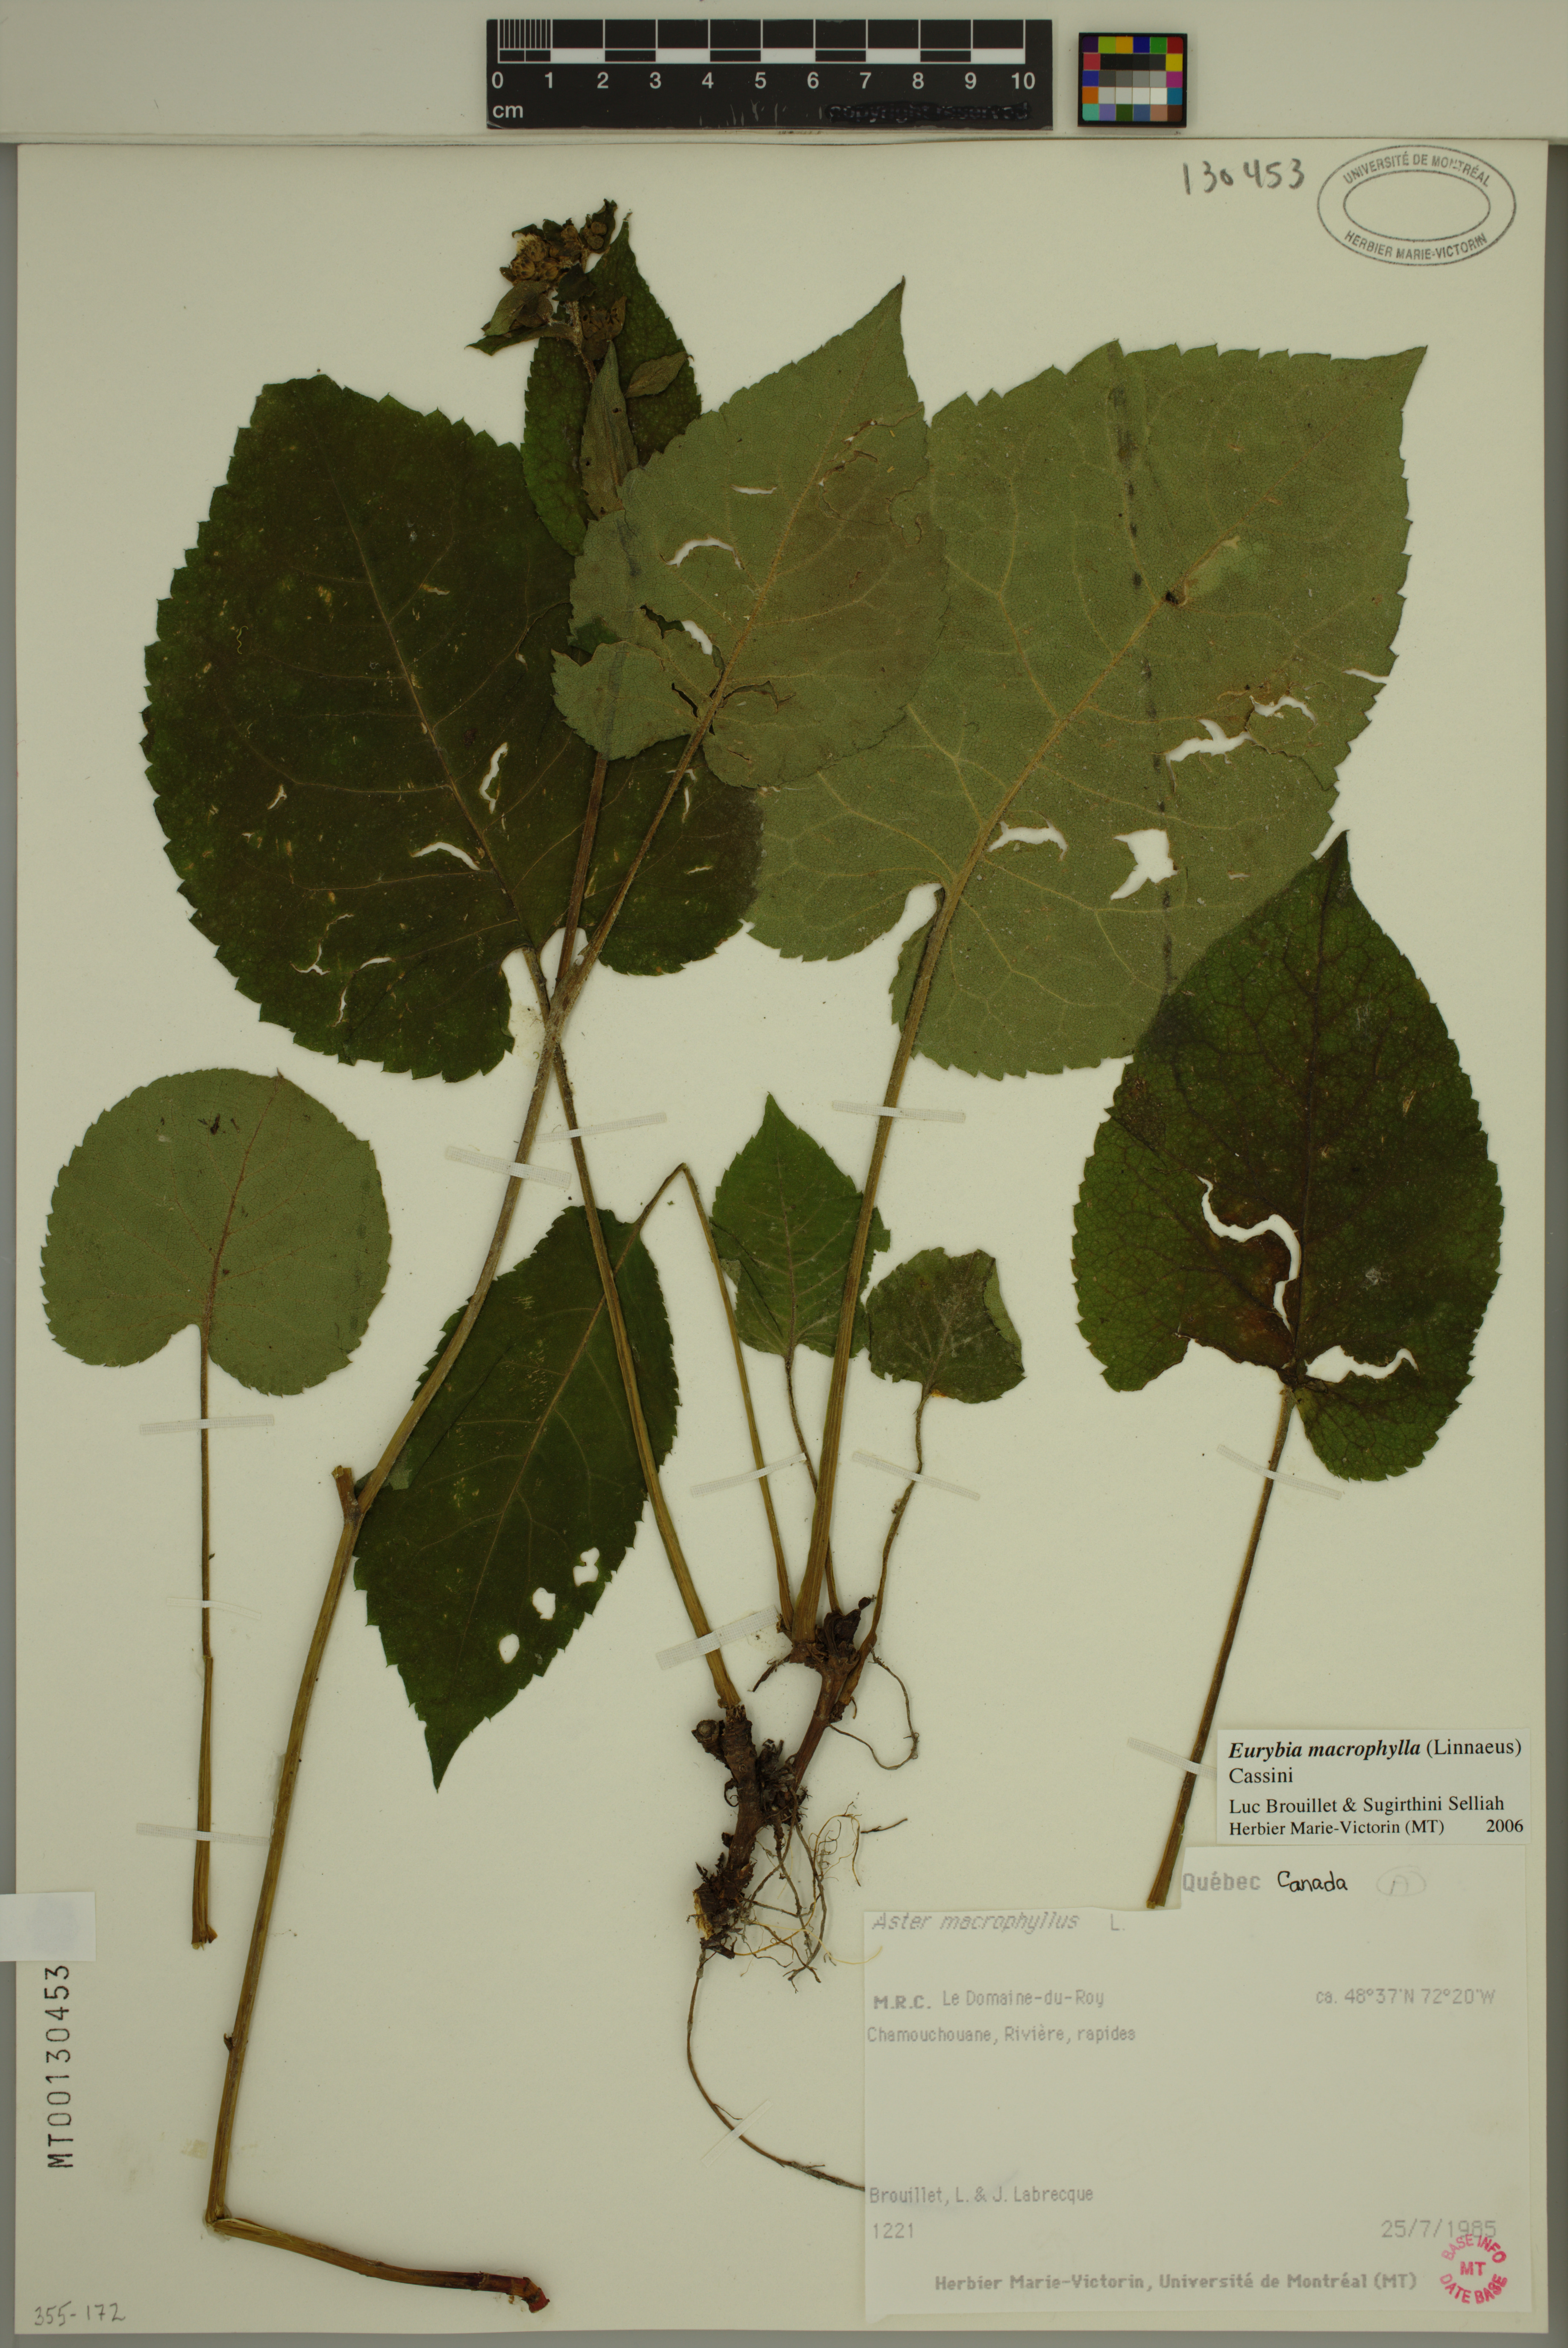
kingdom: Plantae
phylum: Tracheophyta
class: Magnoliopsida
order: Asterales
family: Asteraceae
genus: Eurybia
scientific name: Eurybia macrophylla
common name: Big-leaved aster
